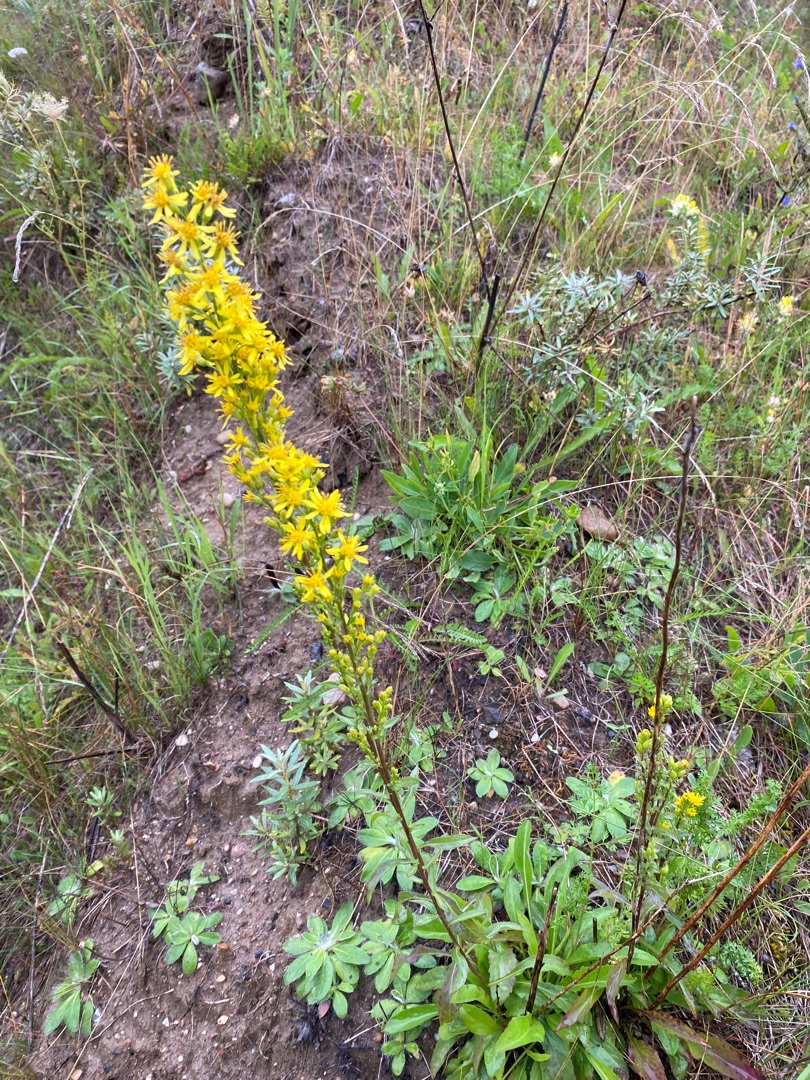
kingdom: Plantae
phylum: Tracheophyta
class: Magnoliopsida
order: Asterales
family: Asteraceae
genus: Solidago
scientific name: Solidago virgaurea
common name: Almindelig gyldenris
